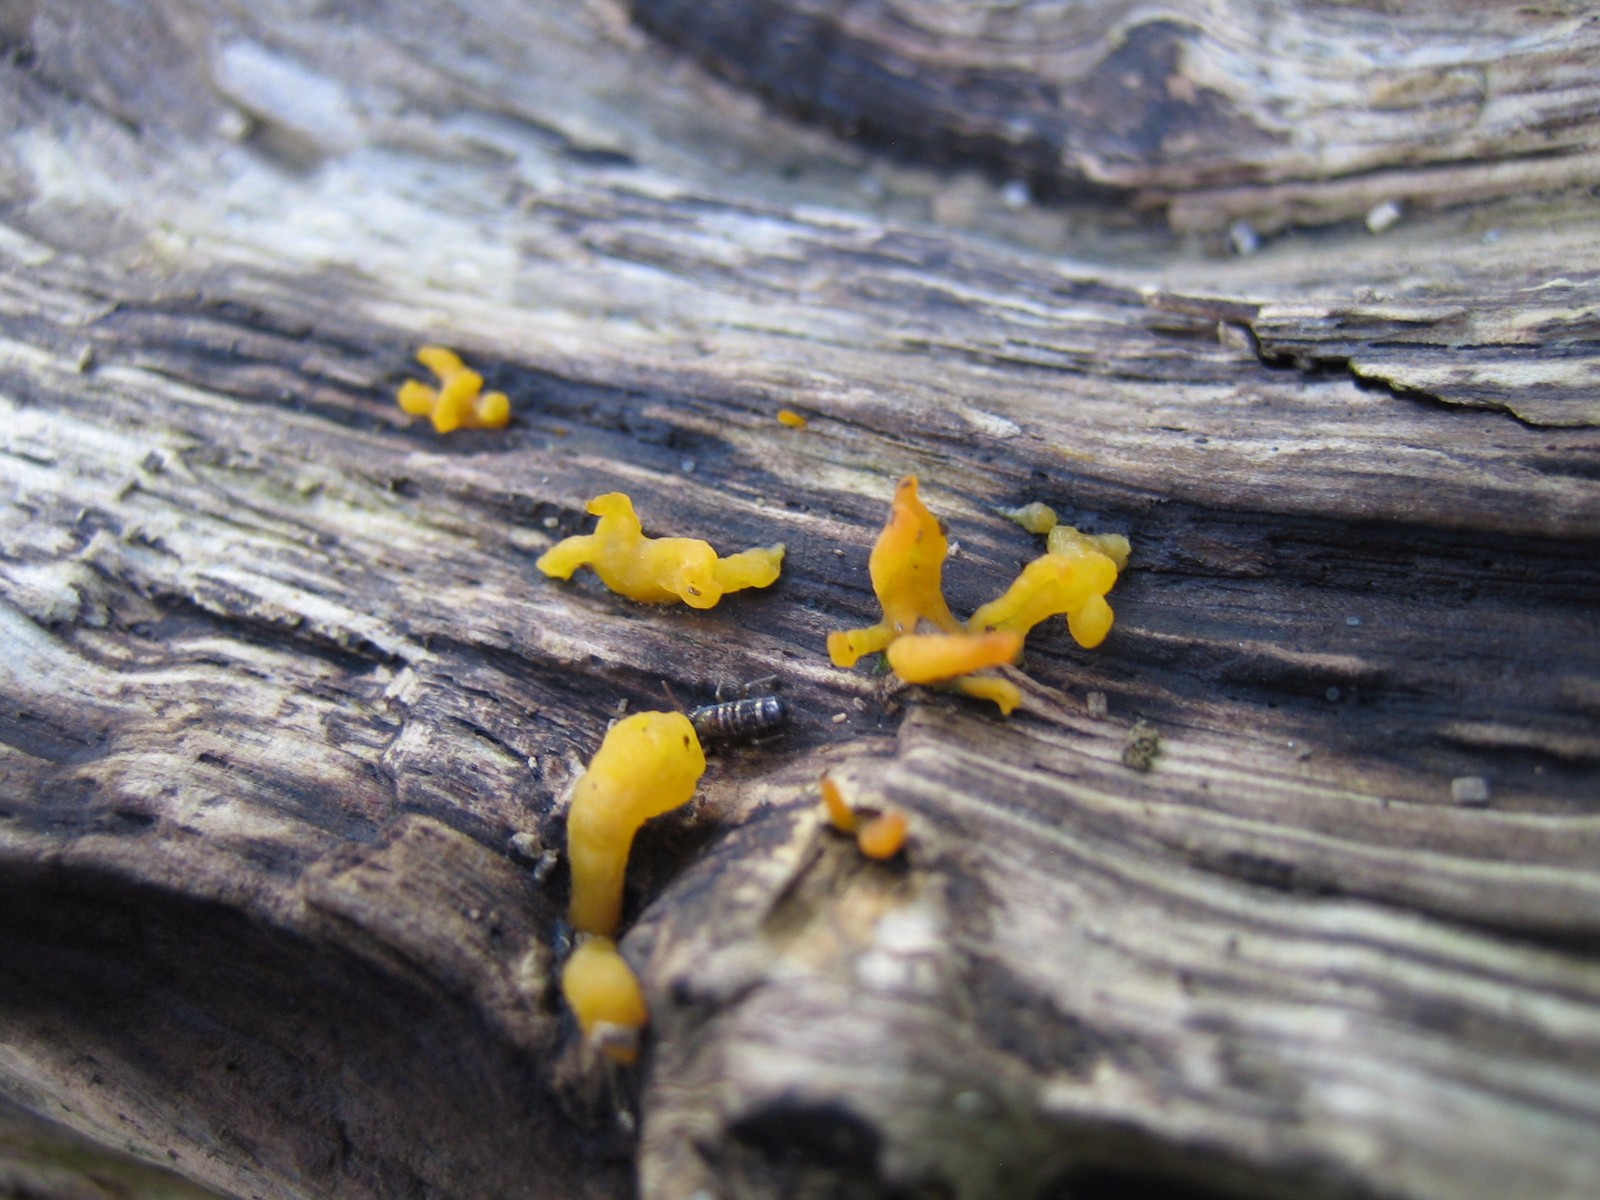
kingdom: Fungi
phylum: Basidiomycota
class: Dacrymycetes
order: Dacrymycetales
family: Dacrymycetaceae
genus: Calocera
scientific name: Calocera cornea
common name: liden guldgaffel
